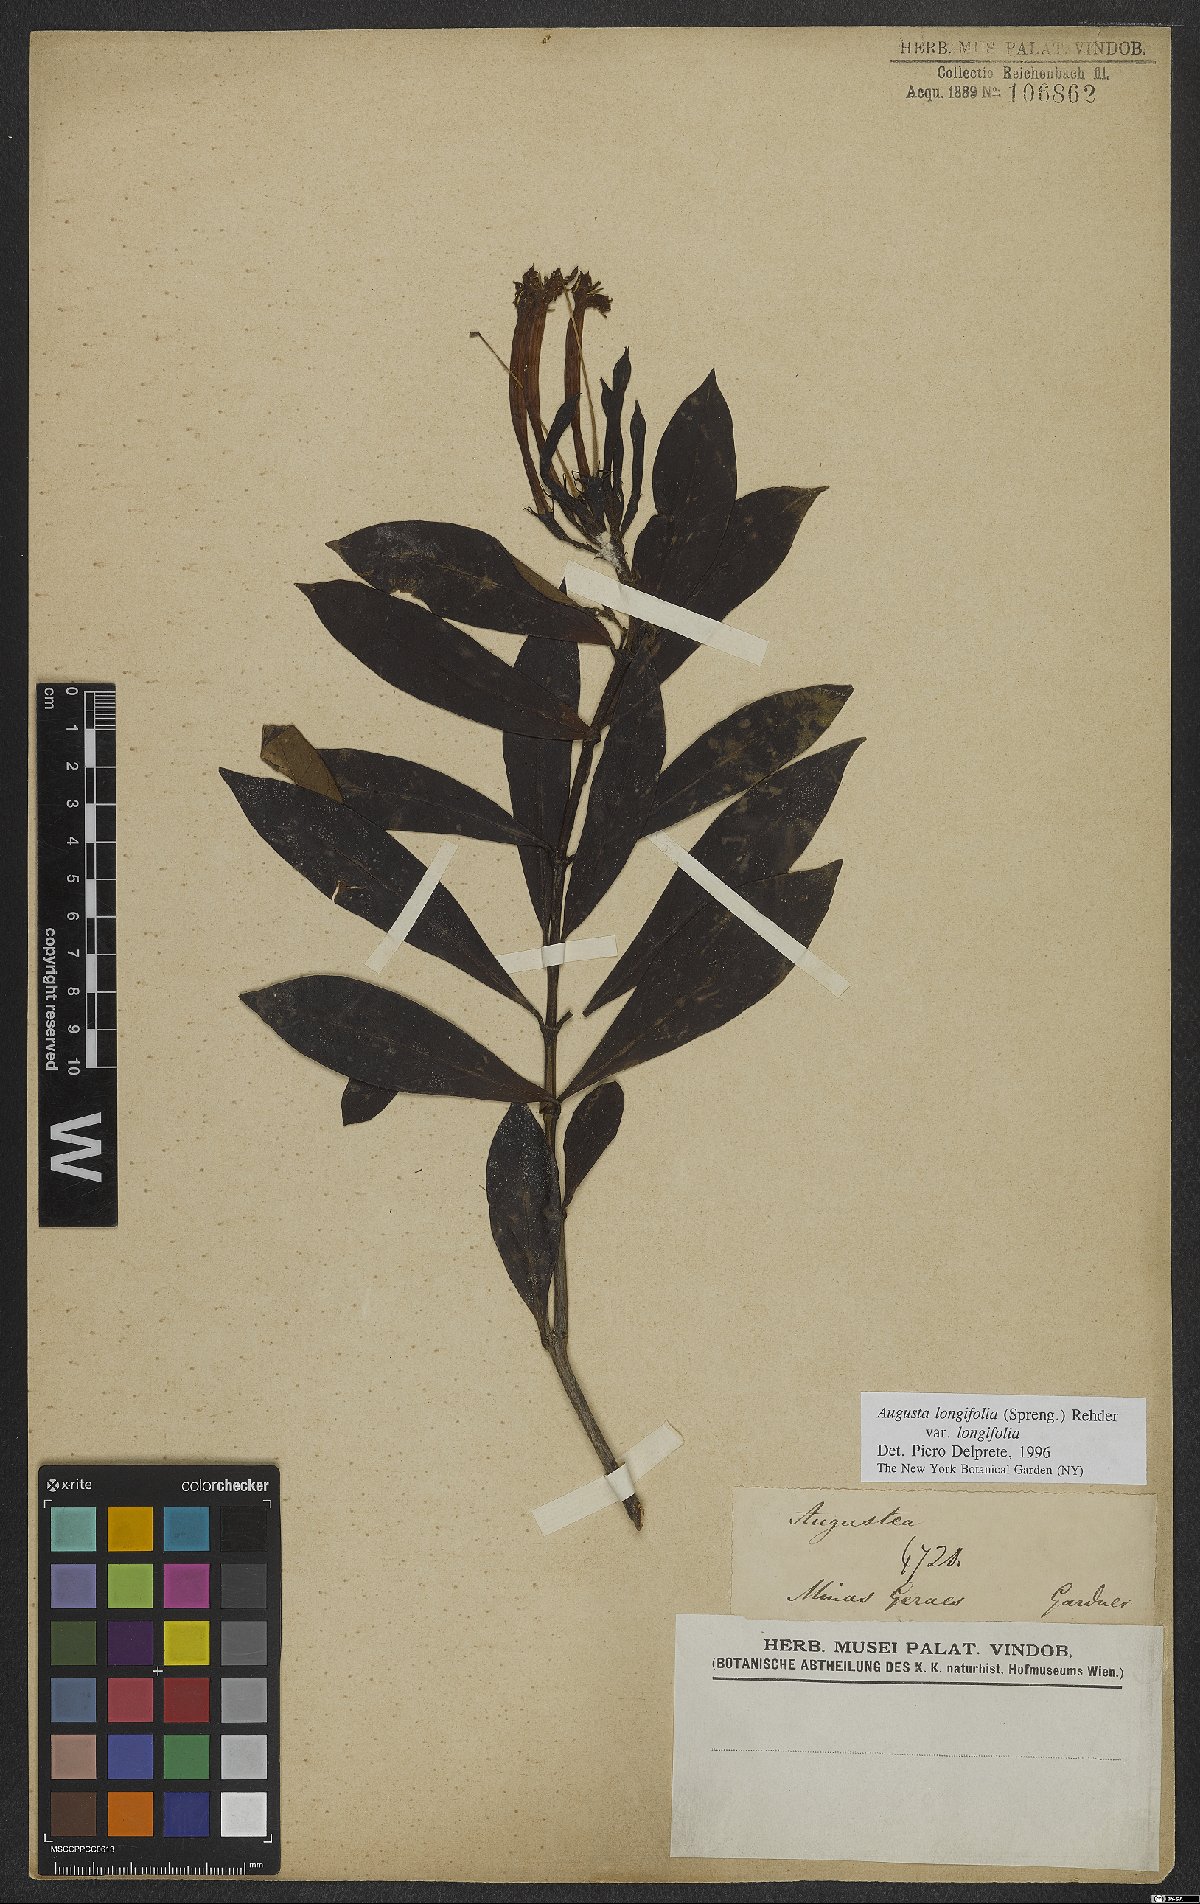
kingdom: Plantae
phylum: Tracheophyta
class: Magnoliopsida
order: Gentianales
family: Rubiaceae
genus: Augusta
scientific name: Augusta longifolia
